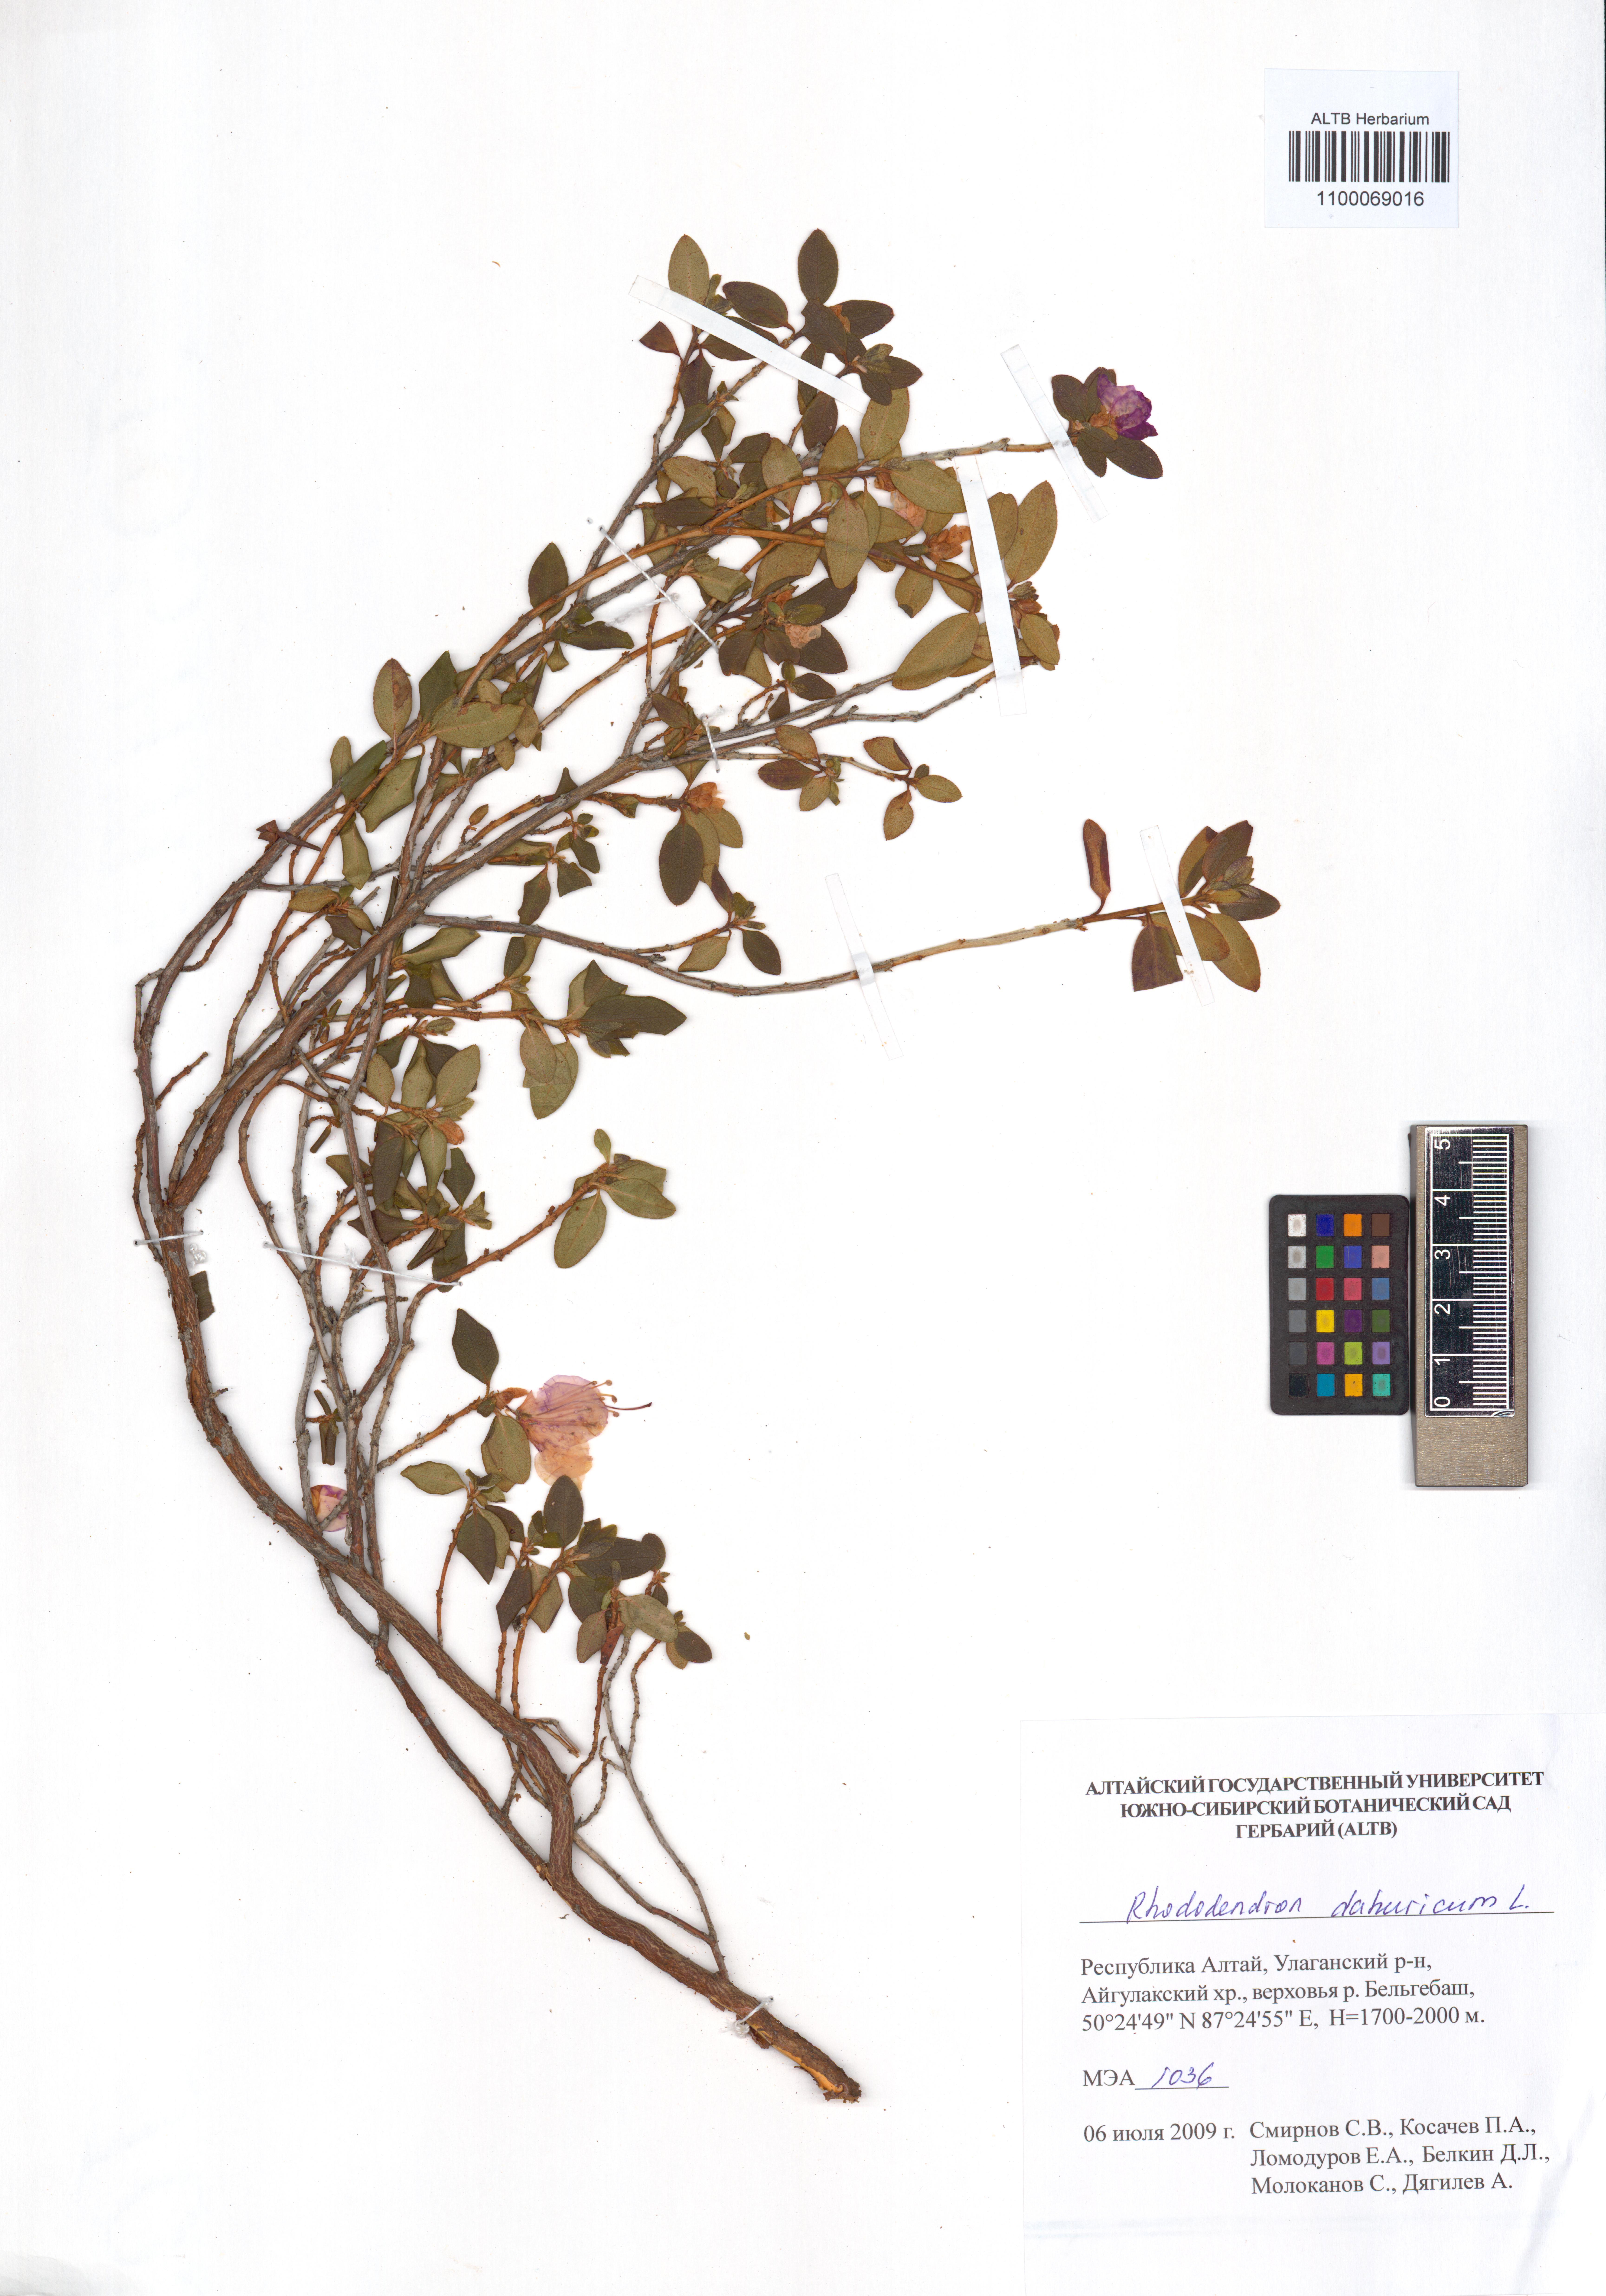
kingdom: Plantae
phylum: Tracheophyta
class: Magnoliopsida
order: Ericales
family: Ericaceae
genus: Rhododendron
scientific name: Rhododendron dauricum
